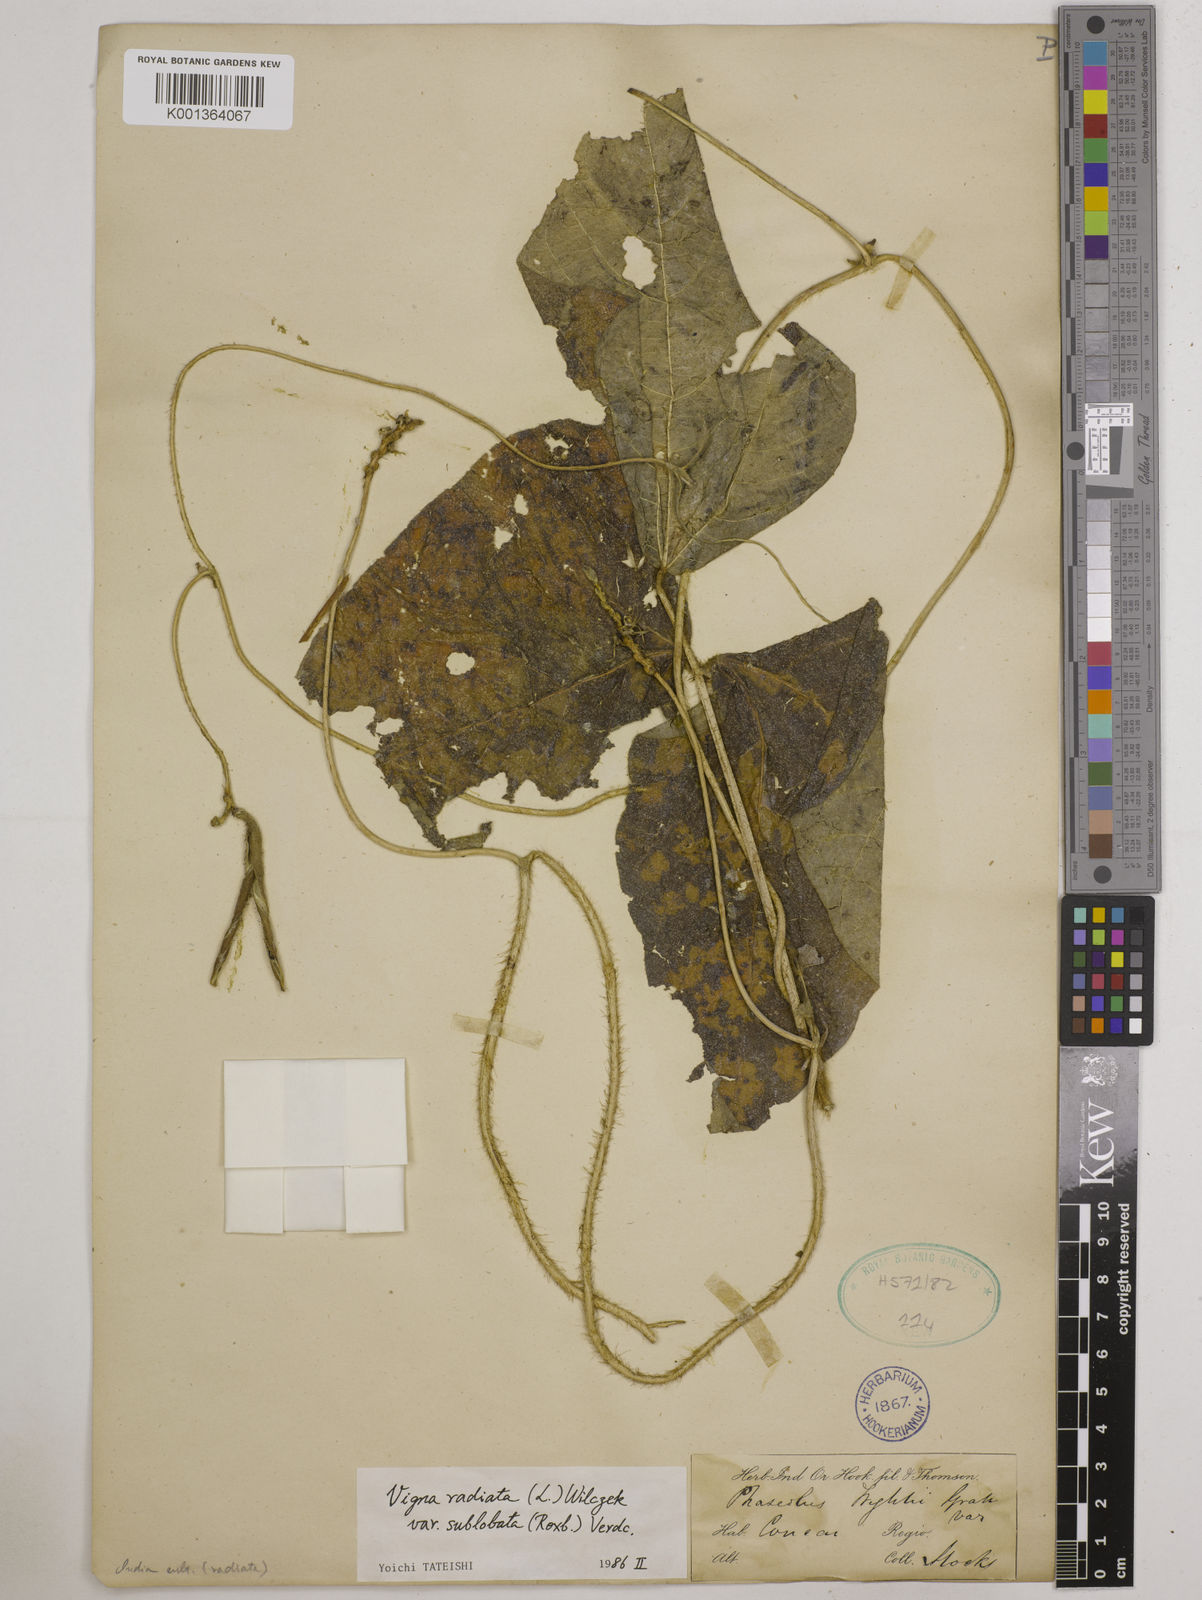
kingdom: Plantae
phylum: Tracheophyta
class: Magnoliopsida
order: Fabales
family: Fabaceae
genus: Vigna
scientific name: Vigna radiata
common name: Mung-bean
